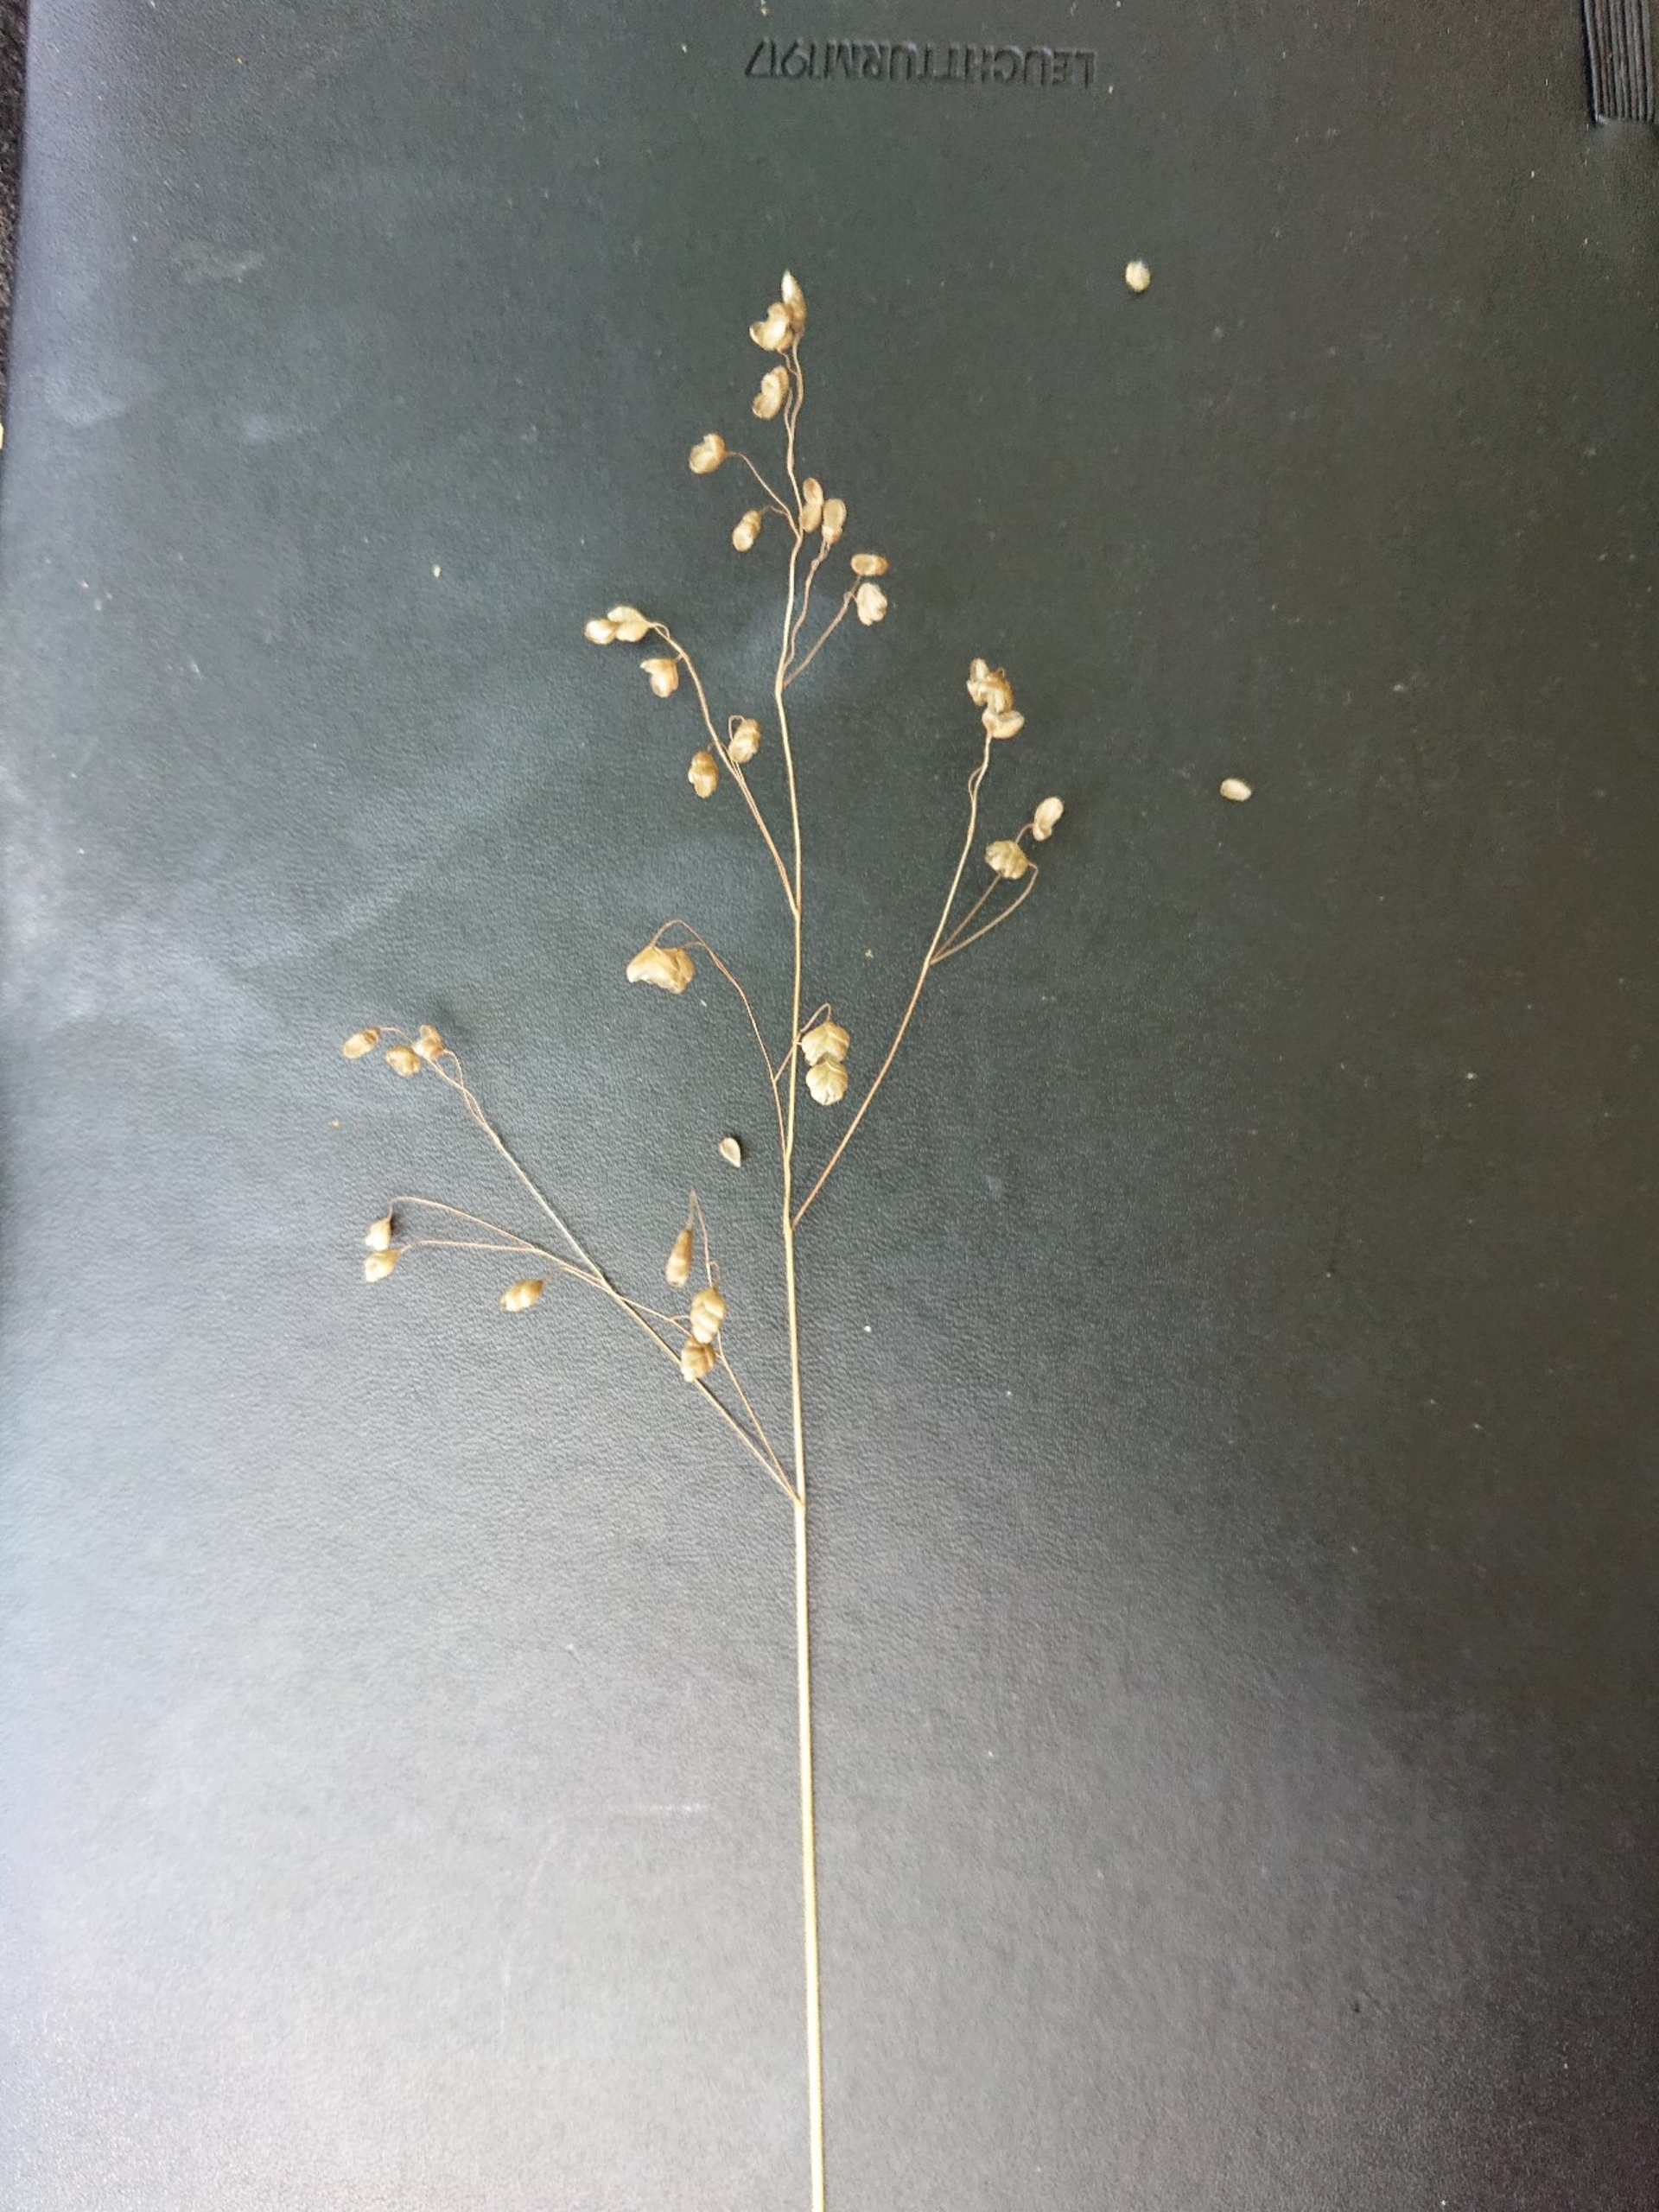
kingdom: Plantae
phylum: Tracheophyta
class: Liliopsida
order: Poales
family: Poaceae
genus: Briza
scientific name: Briza media
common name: Hjertegræs
